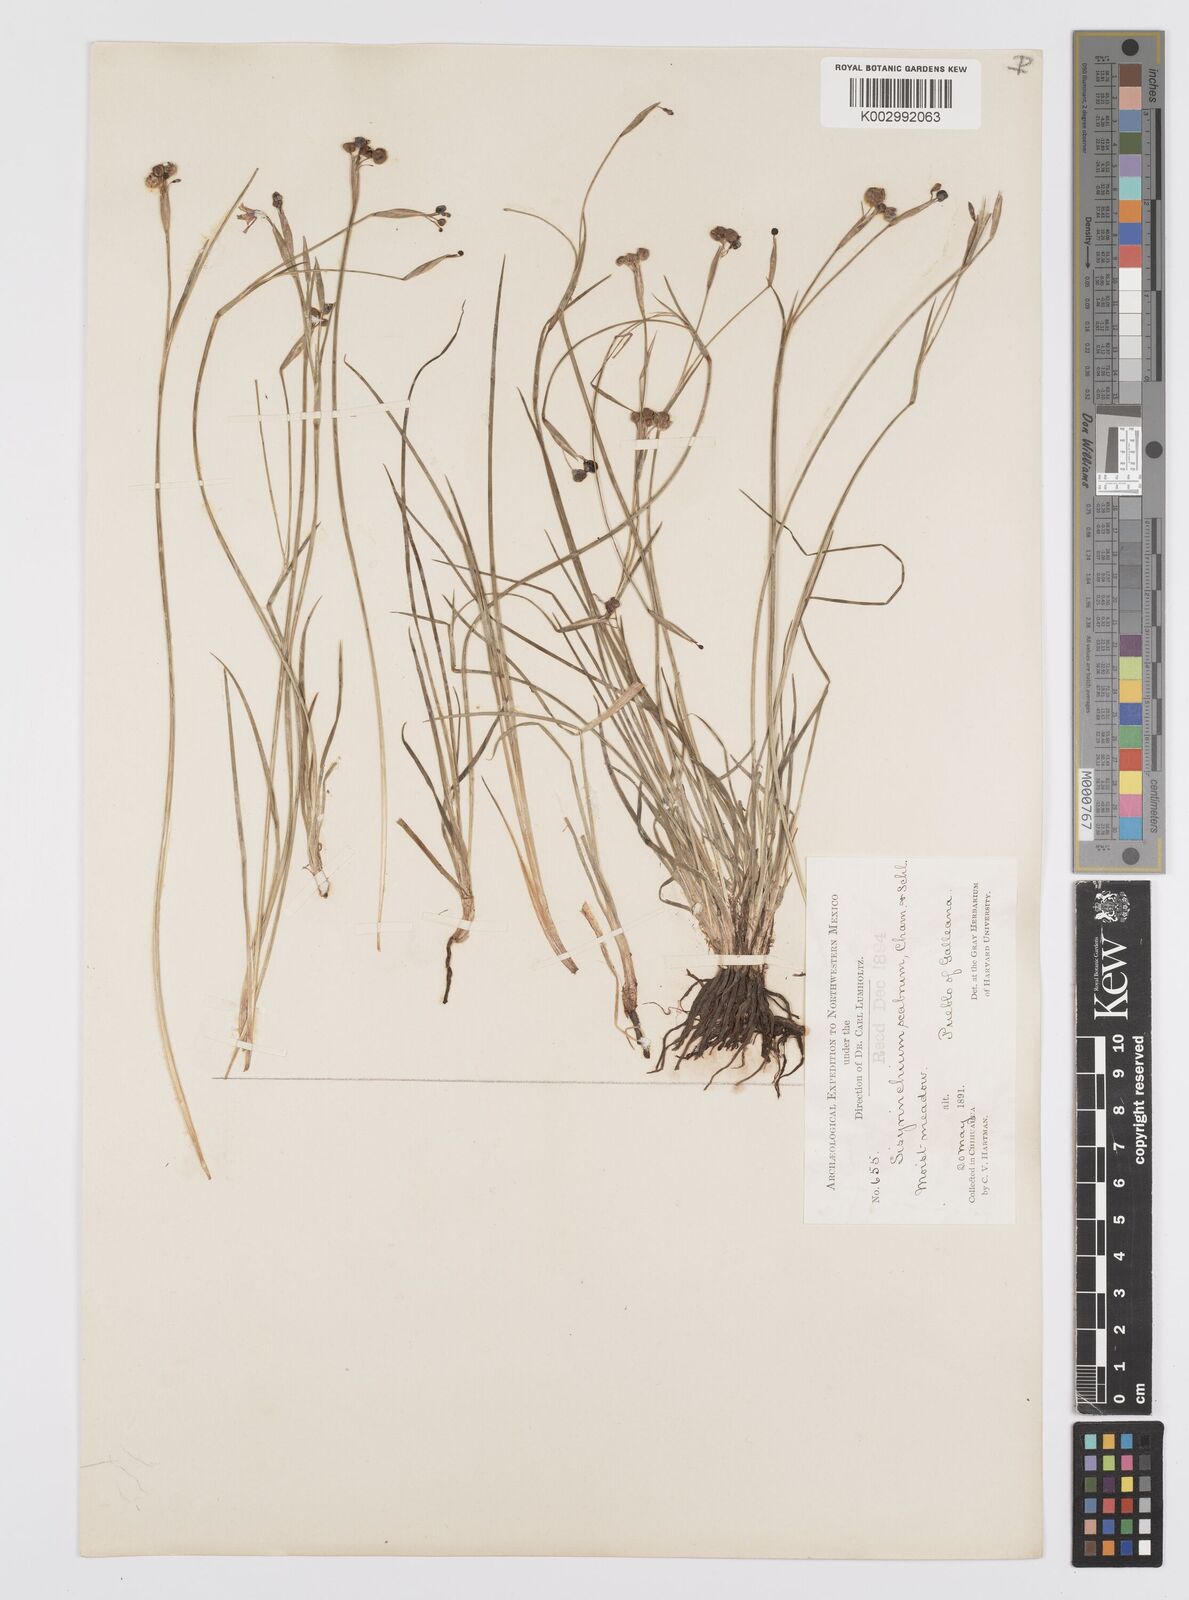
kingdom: Plantae
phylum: Tracheophyta
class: Liliopsida
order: Asparagales
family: Iridaceae
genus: Sisyrinchium
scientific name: Sisyrinchium scabrum
